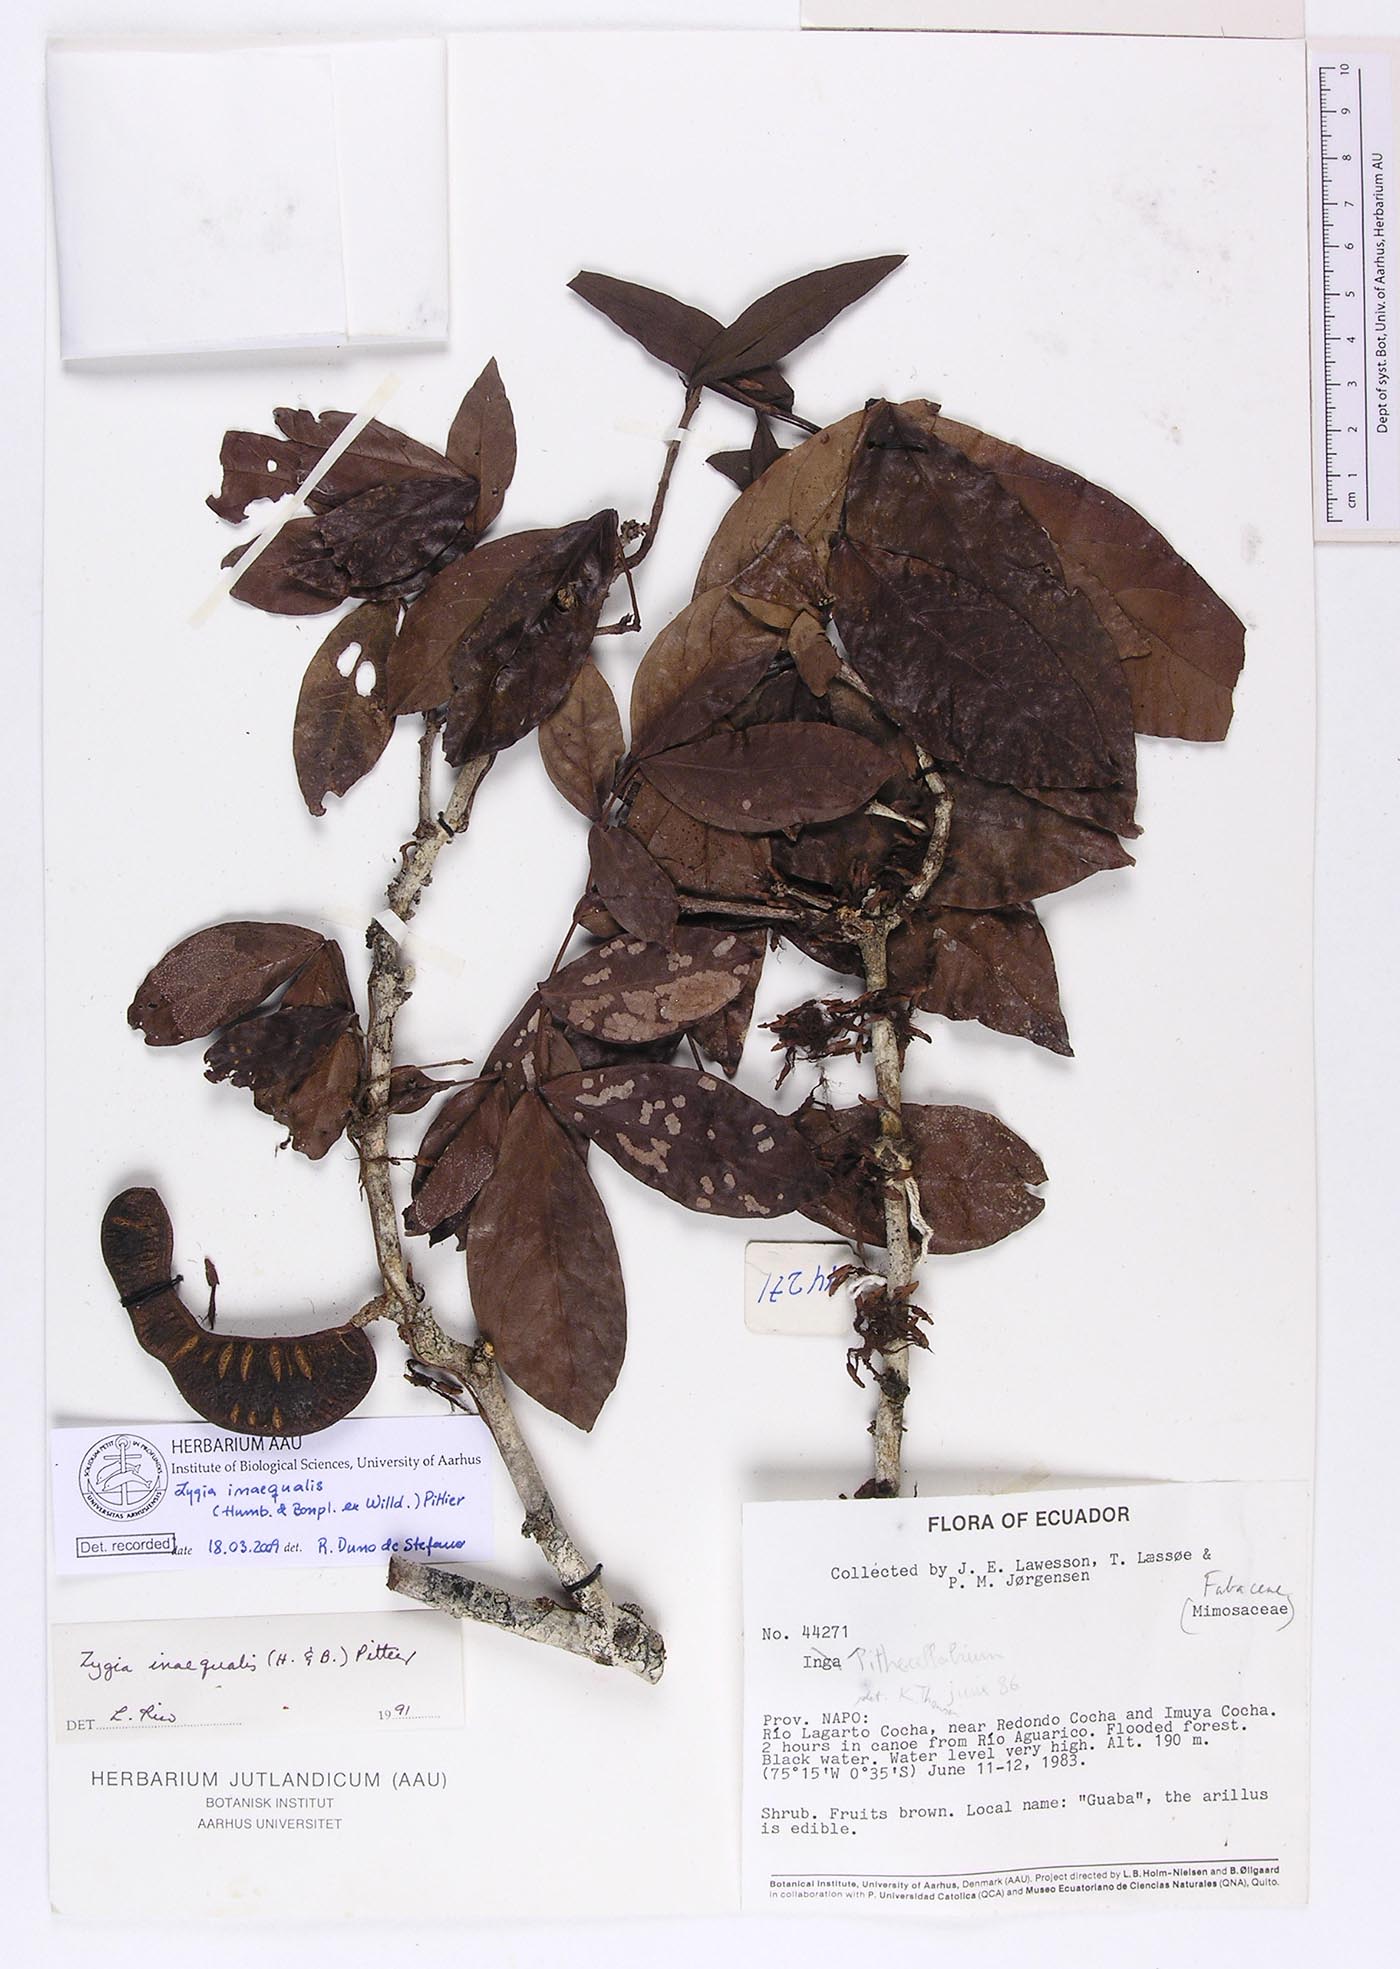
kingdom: Plantae
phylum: Tracheophyta
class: Magnoliopsida
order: Fabales
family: Fabaceae
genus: Zygia
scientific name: Zygia inaequalis
